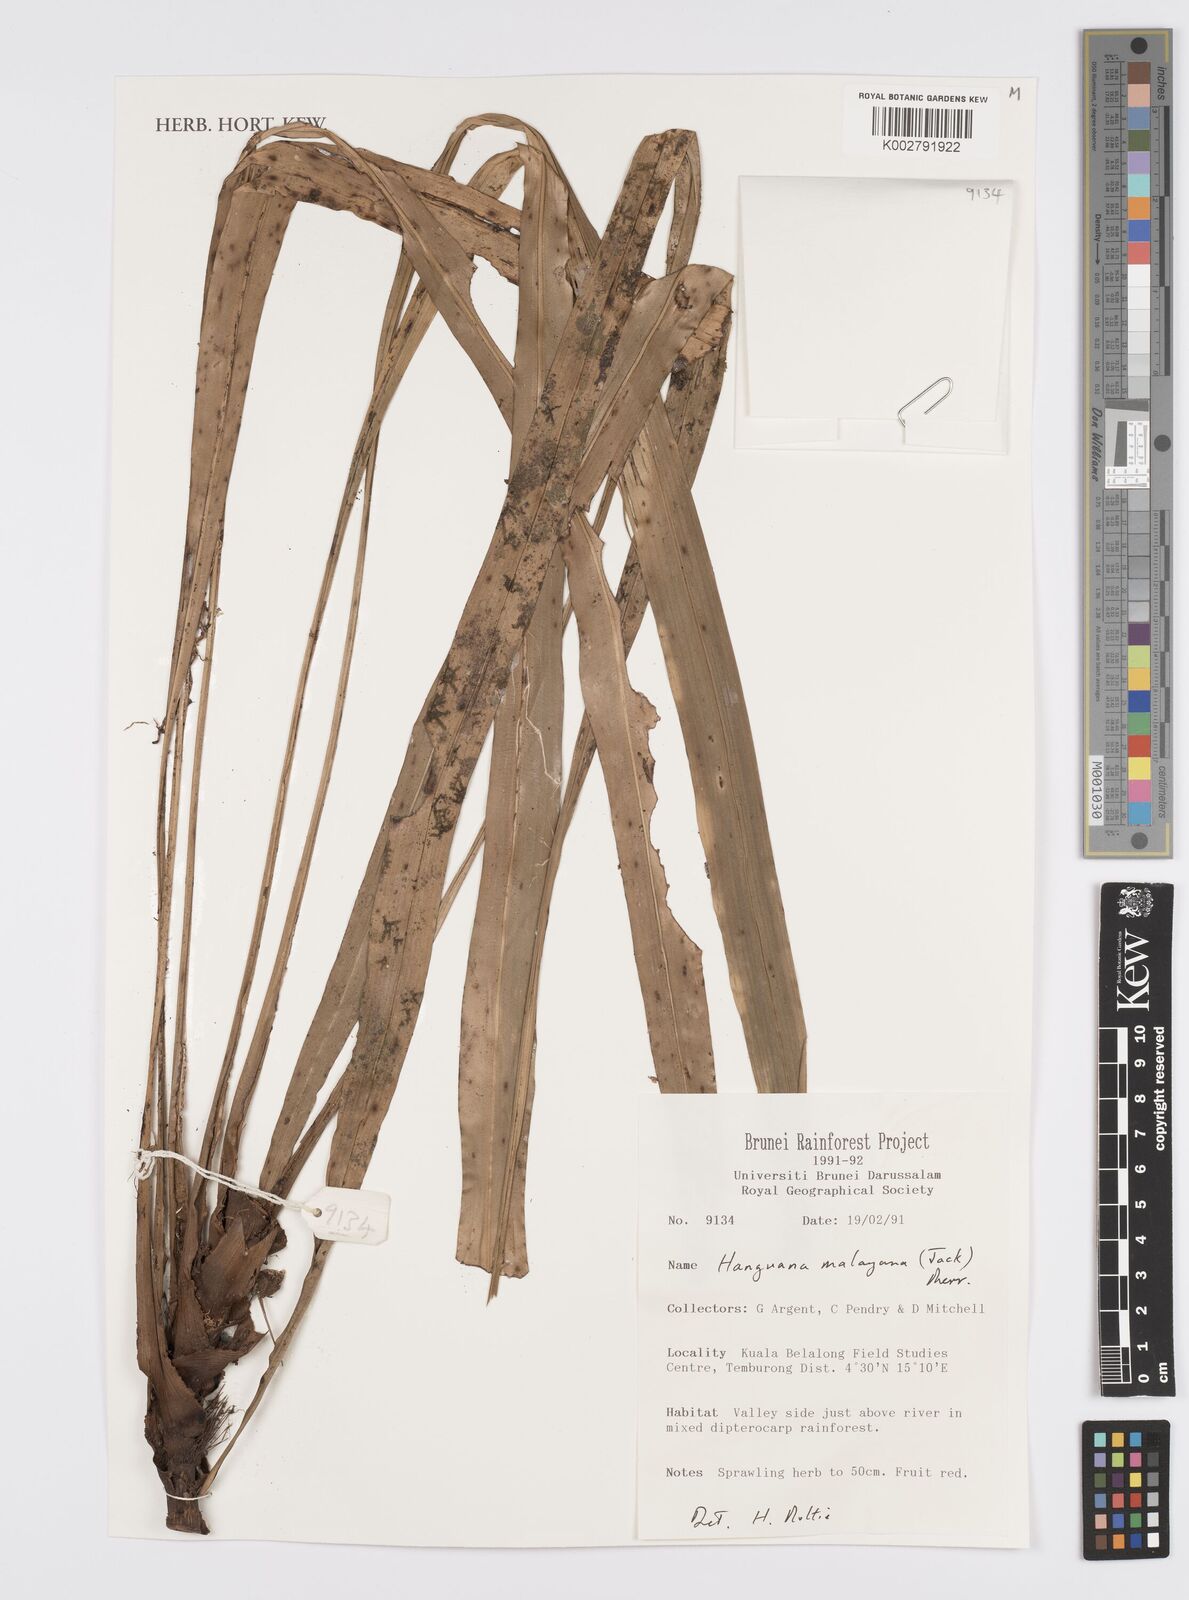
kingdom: Plantae
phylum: Tracheophyta
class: Liliopsida
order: Commelinales
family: Hanguanaceae
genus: Hanguana
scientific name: Hanguana malayana
